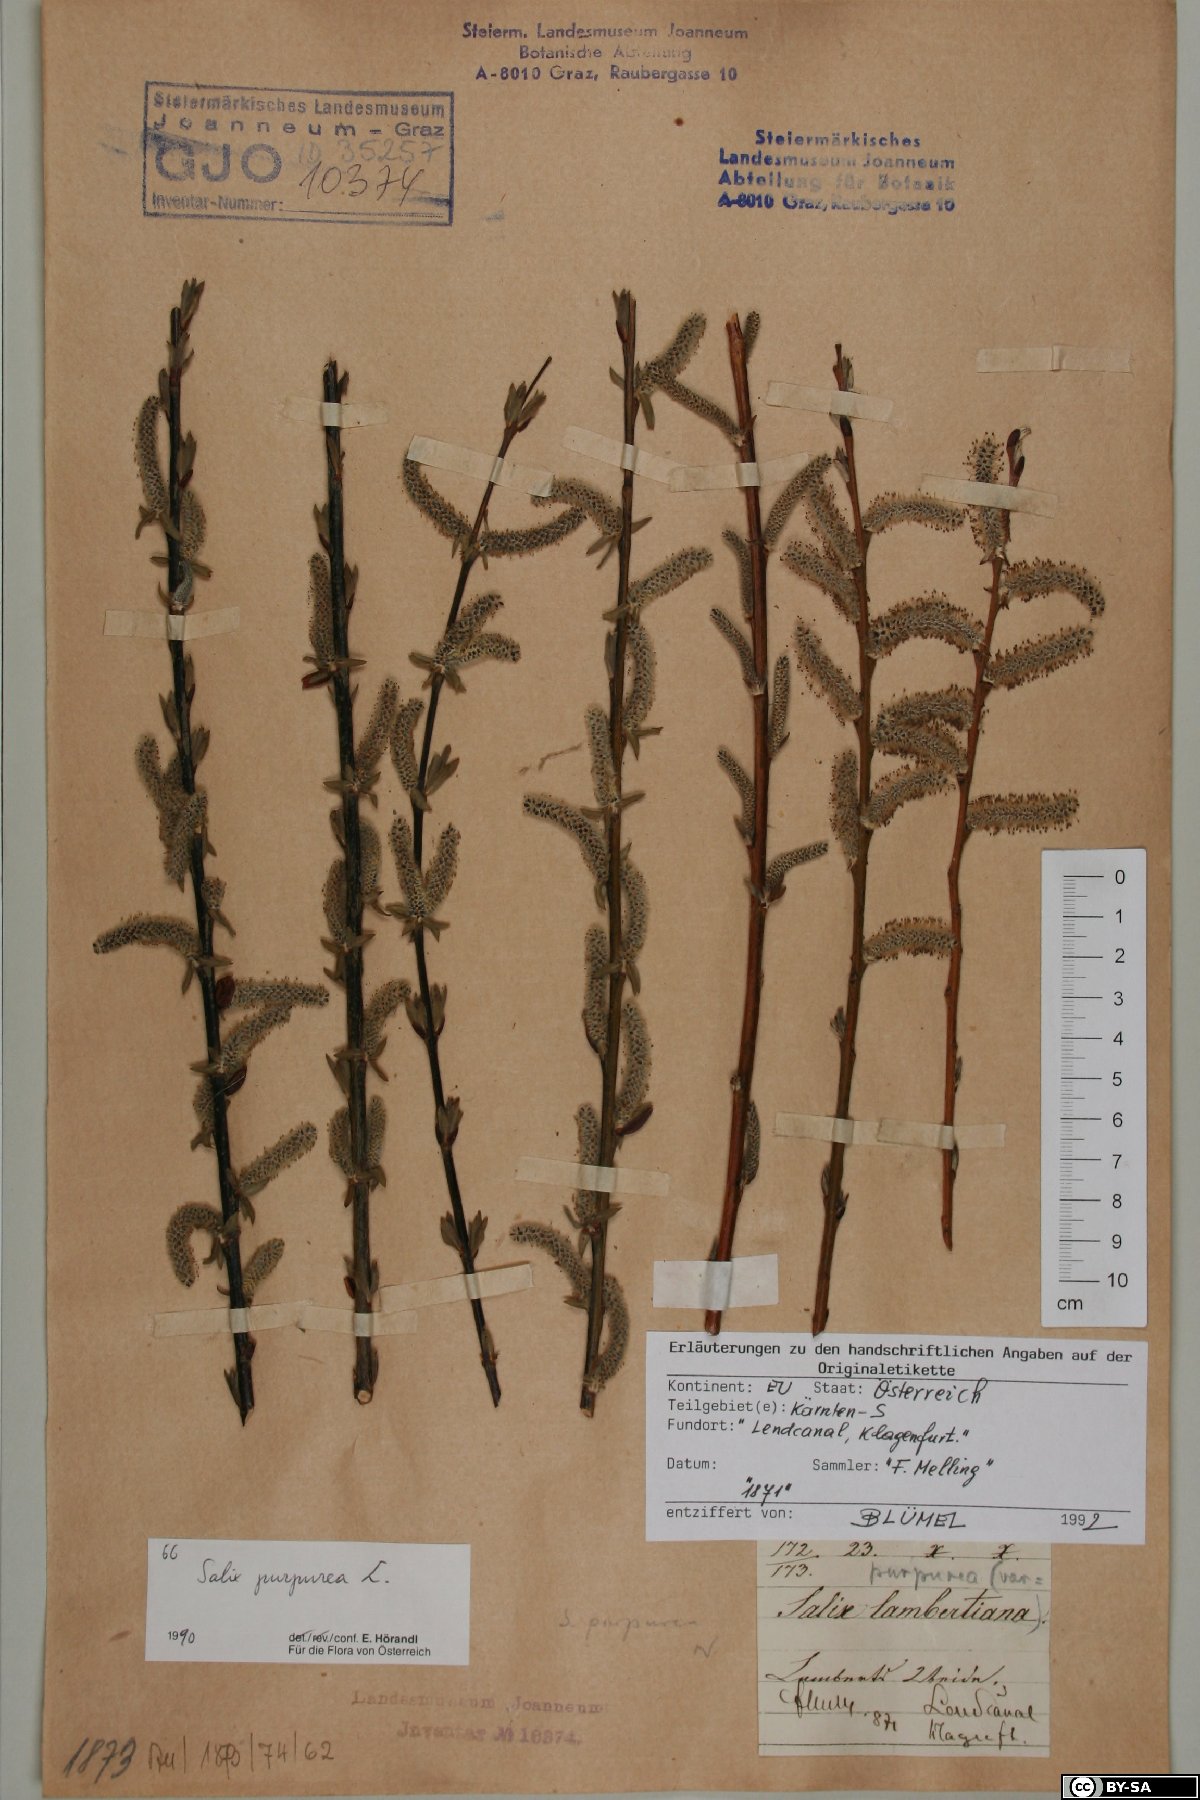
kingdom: Plantae
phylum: Tracheophyta
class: Magnoliopsida
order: Malpighiales
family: Salicaceae
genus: Salix
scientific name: Salix purpurea
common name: Purple willow
